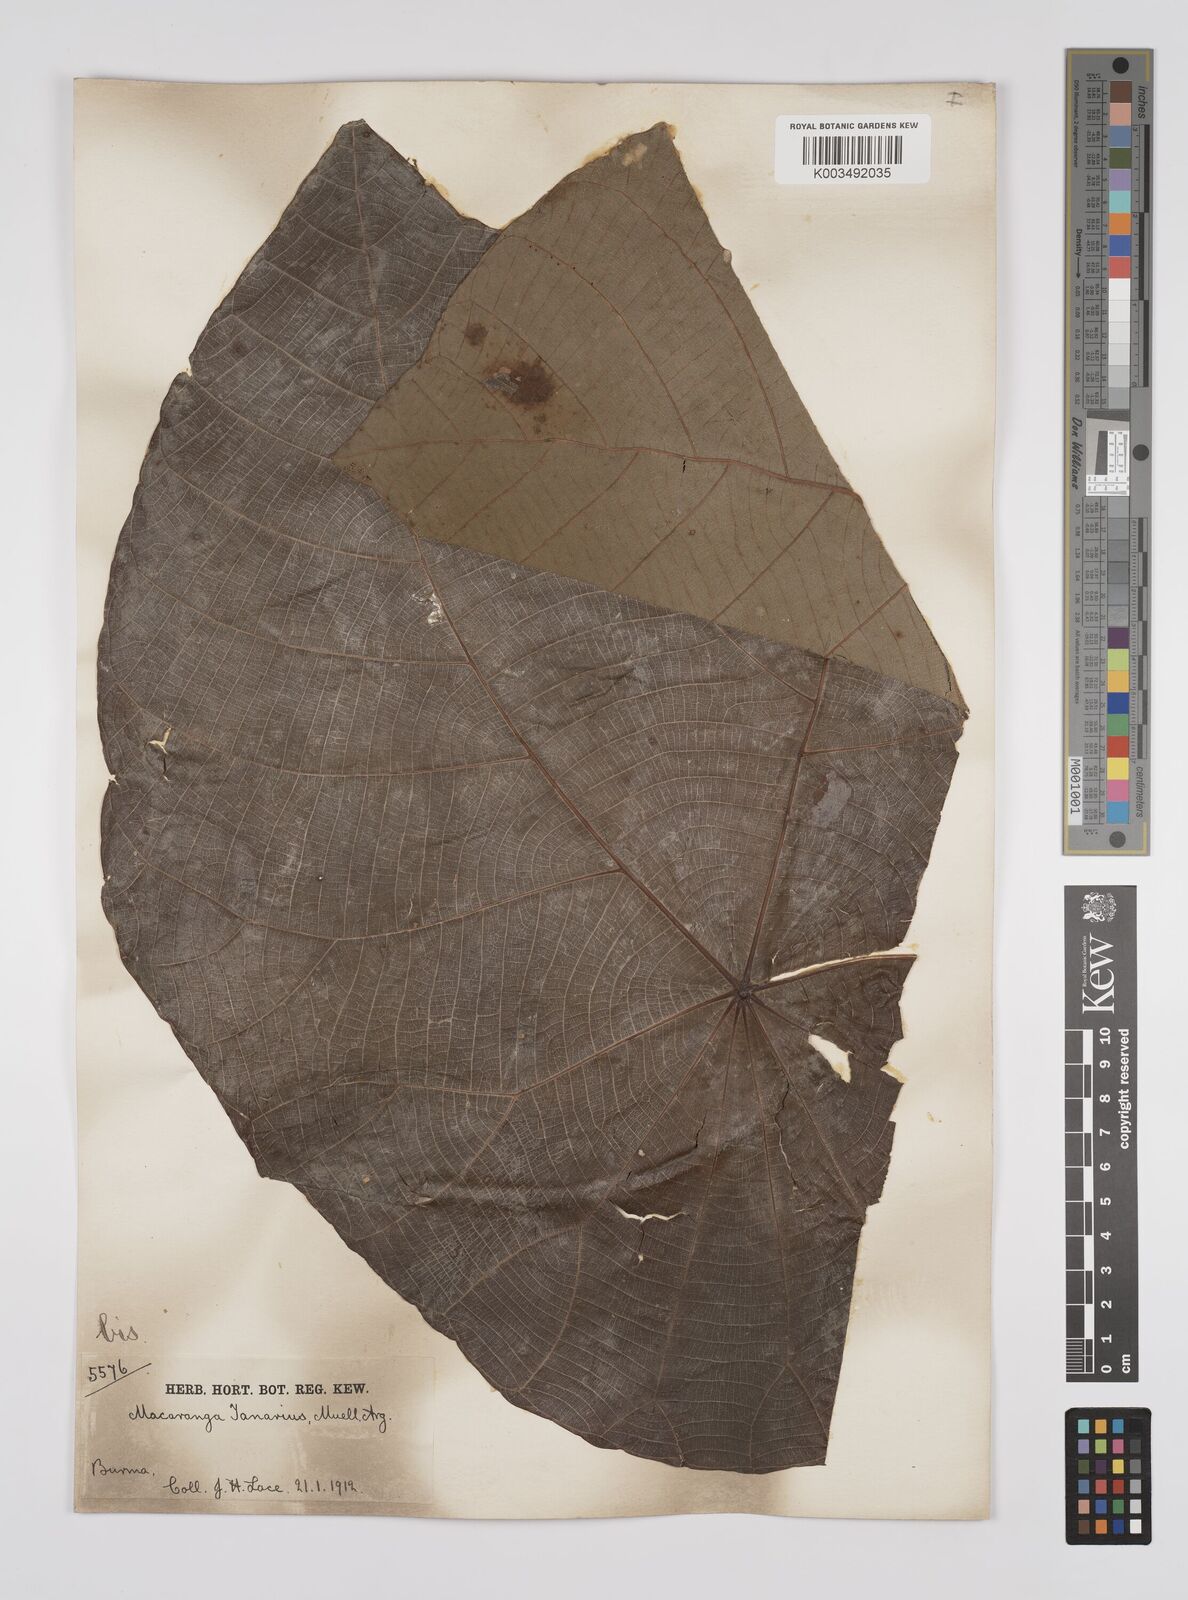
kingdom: Plantae
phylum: Tracheophyta
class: Magnoliopsida
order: Malpighiales
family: Euphorbiaceae
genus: Macaranga
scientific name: Macaranga tanarius
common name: Parasol leaf tree
